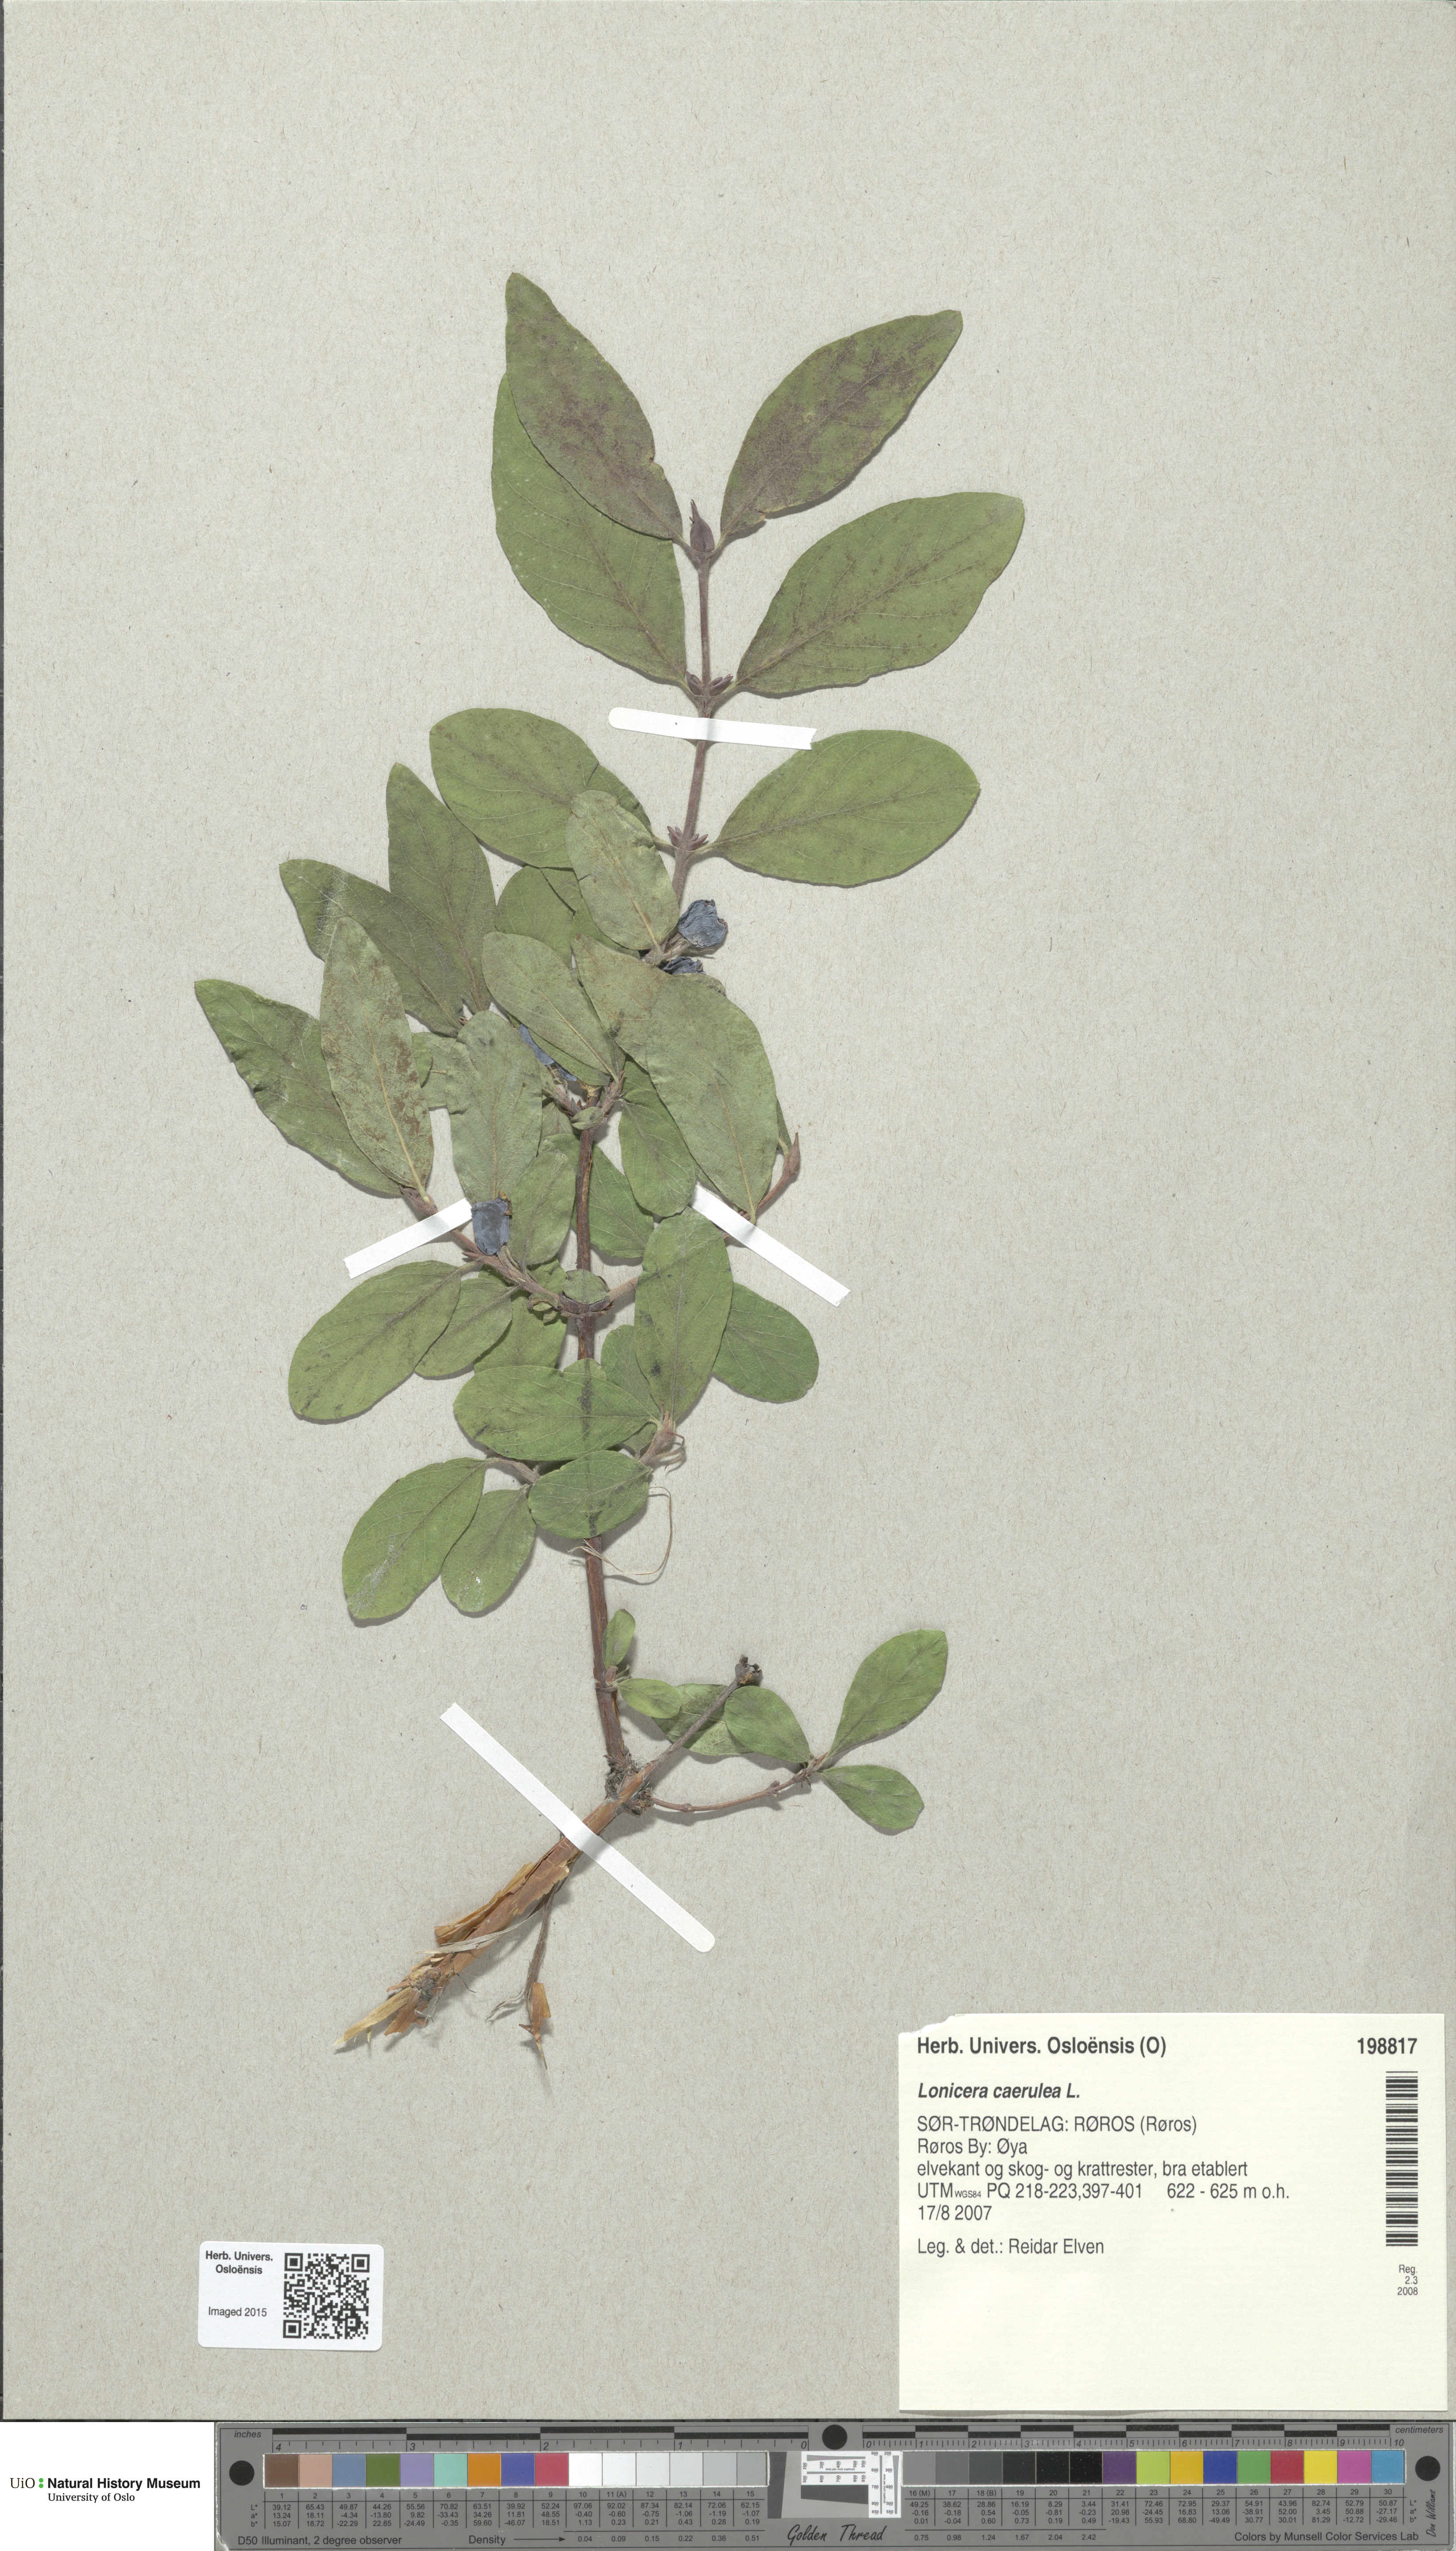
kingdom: Plantae
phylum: Tracheophyta
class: Magnoliopsida
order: Dipsacales
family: Caprifoliaceae
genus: Lonicera
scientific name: Lonicera caerulea
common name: Blue honeysuckle
